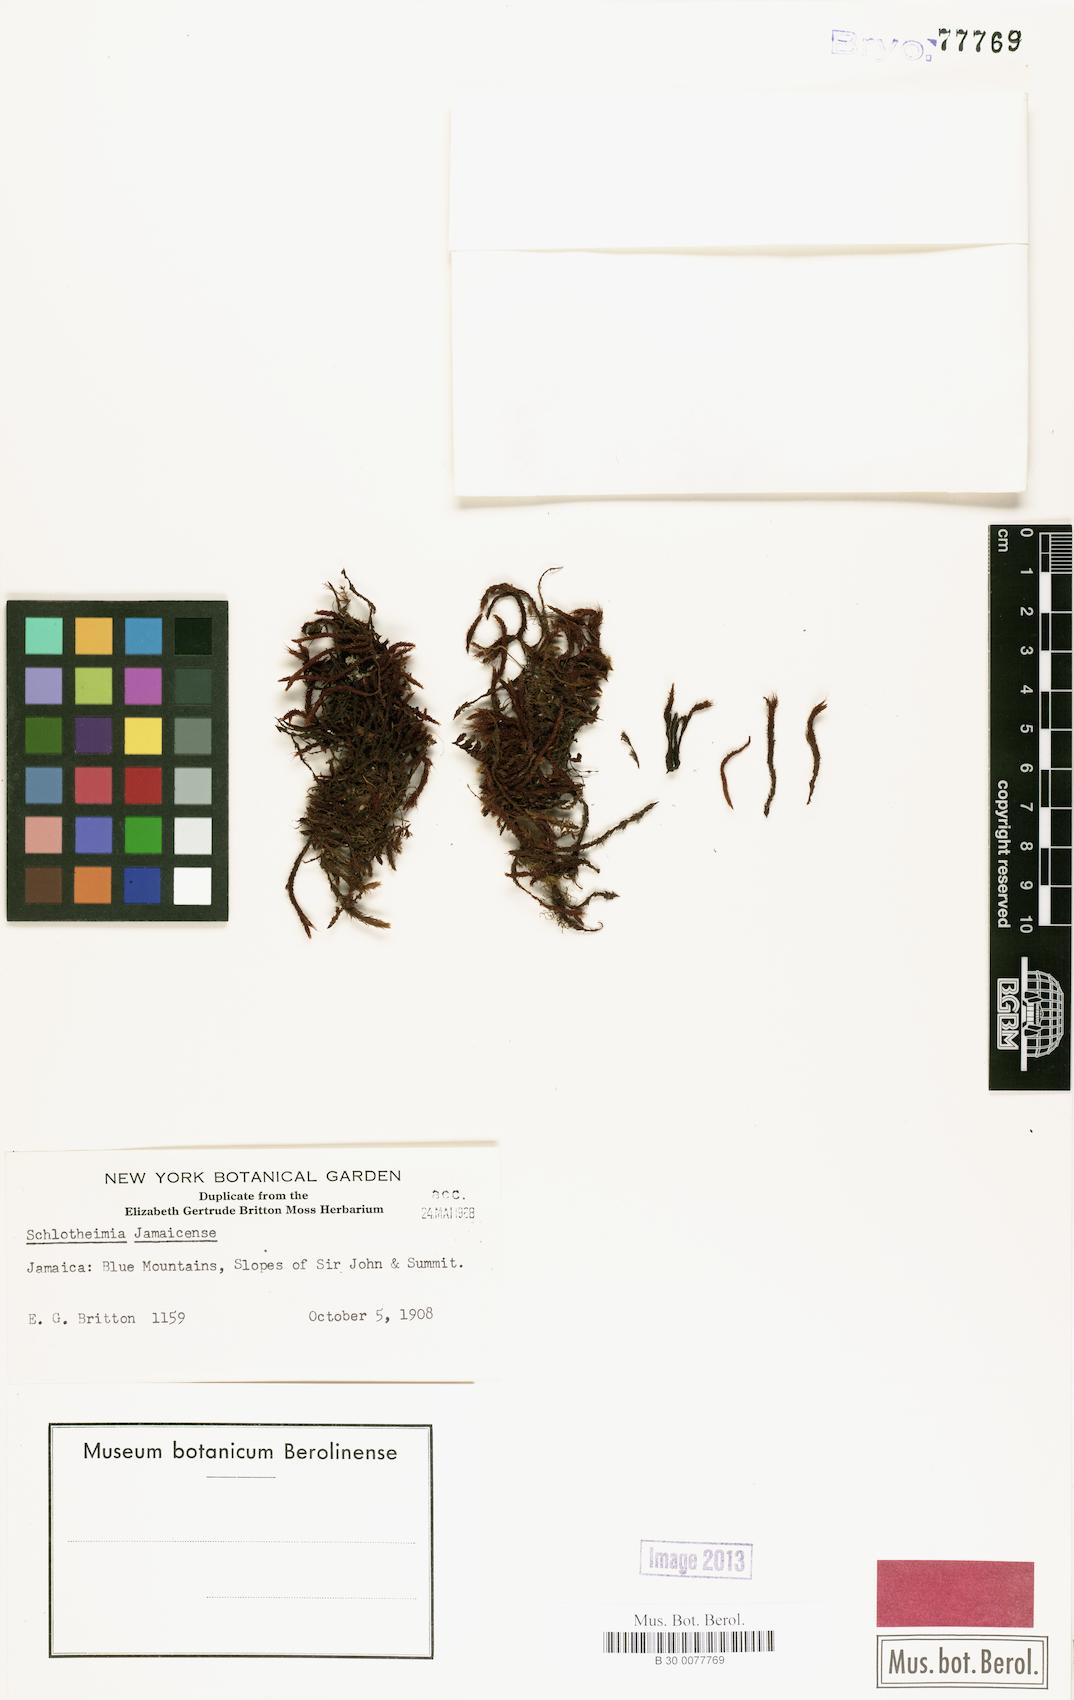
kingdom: Plantae
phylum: Bryophyta
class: Bryopsida
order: Orthotrichales
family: Orthotrichaceae
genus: Schlotheimia
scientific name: Schlotheimia
